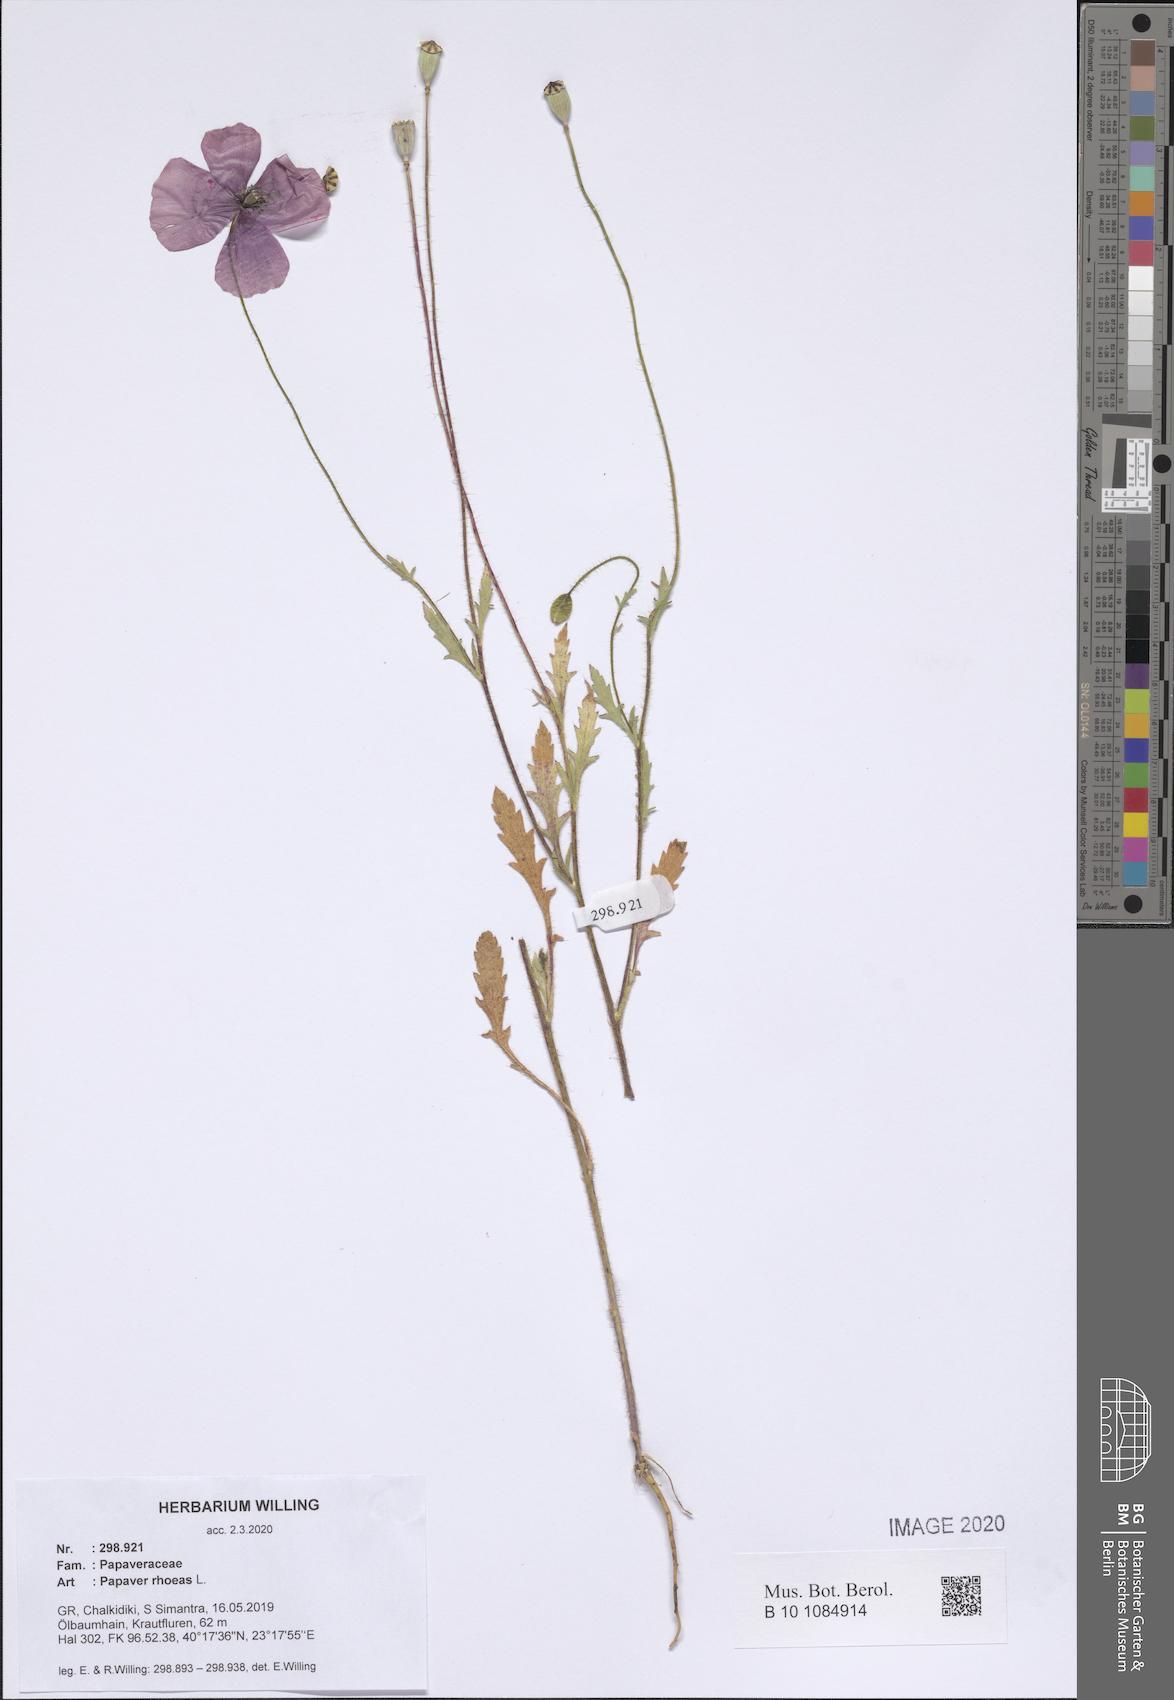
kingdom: Plantae
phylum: Tracheophyta
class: Magnoliopsida
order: Ranunculales
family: Papaveraceae
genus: Papaver
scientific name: Papaver rhoeas
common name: Corn poppy
